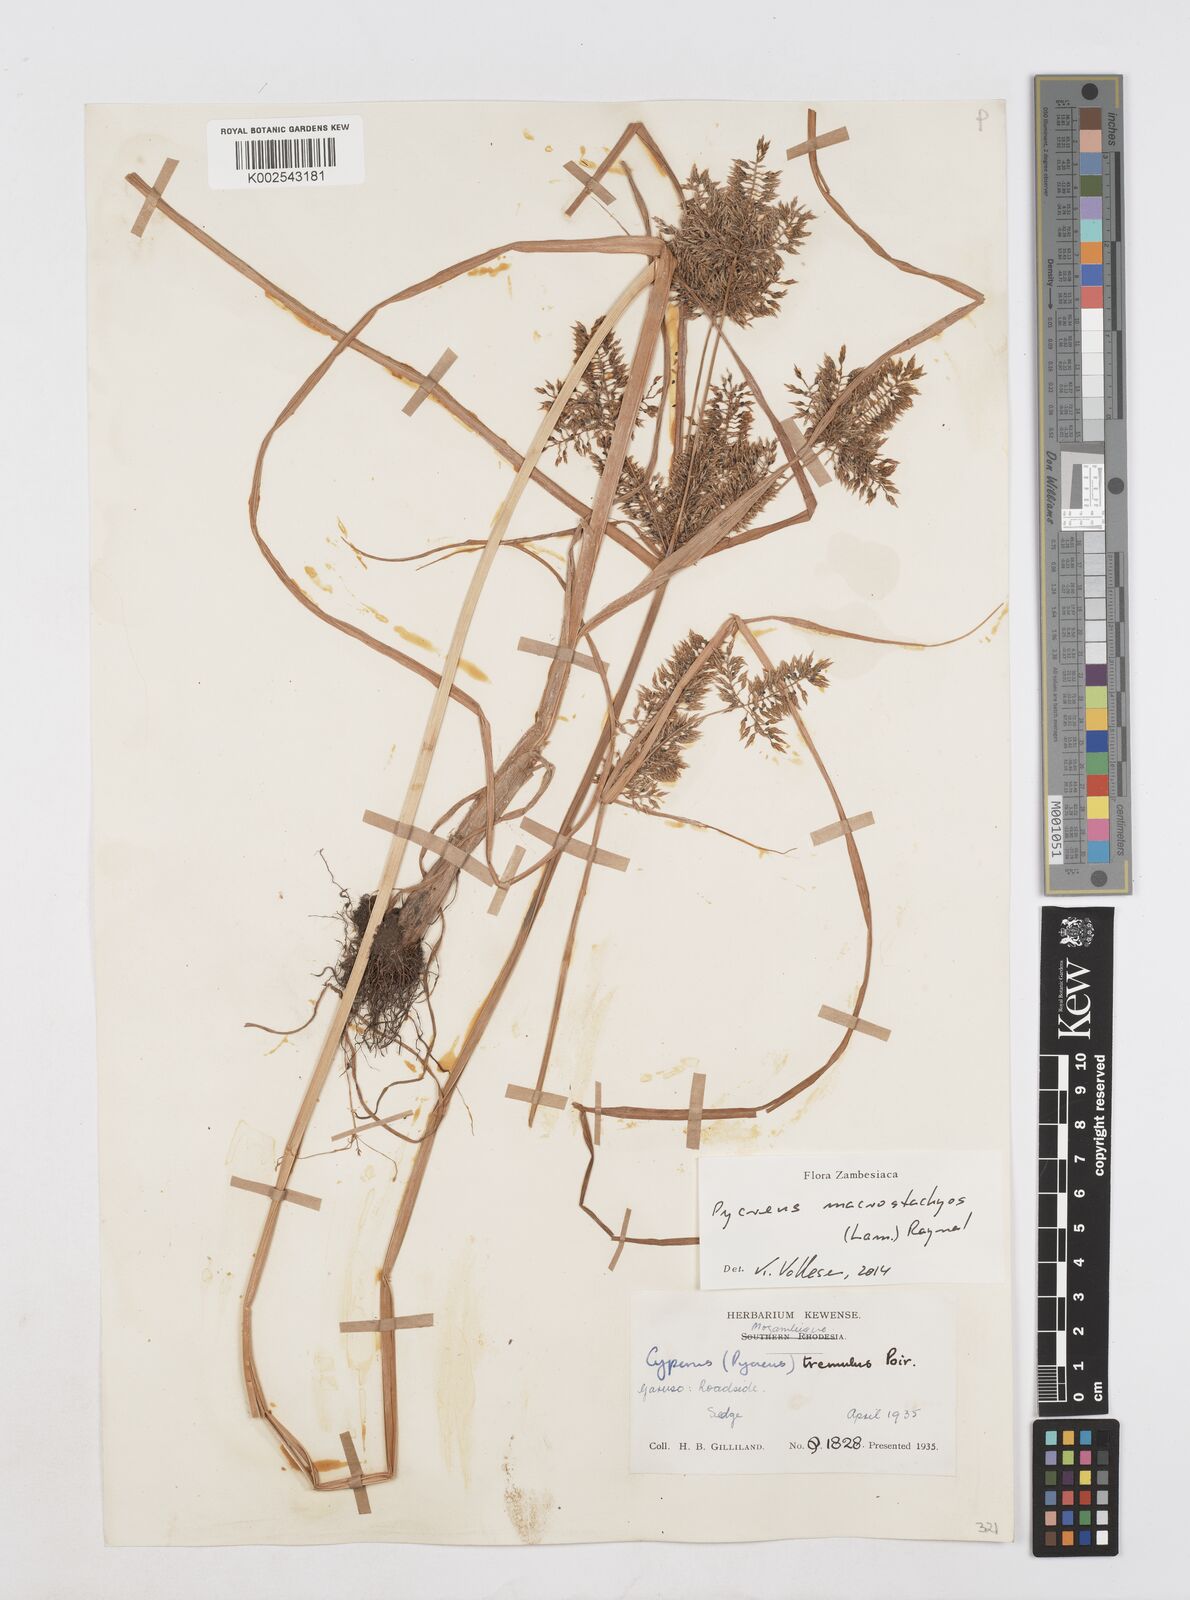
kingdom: Plantae
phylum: Tracheophyta
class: Liliopsida
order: Poales
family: Cyperaceae
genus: Cyperus
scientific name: Cyperus macrostachyos
